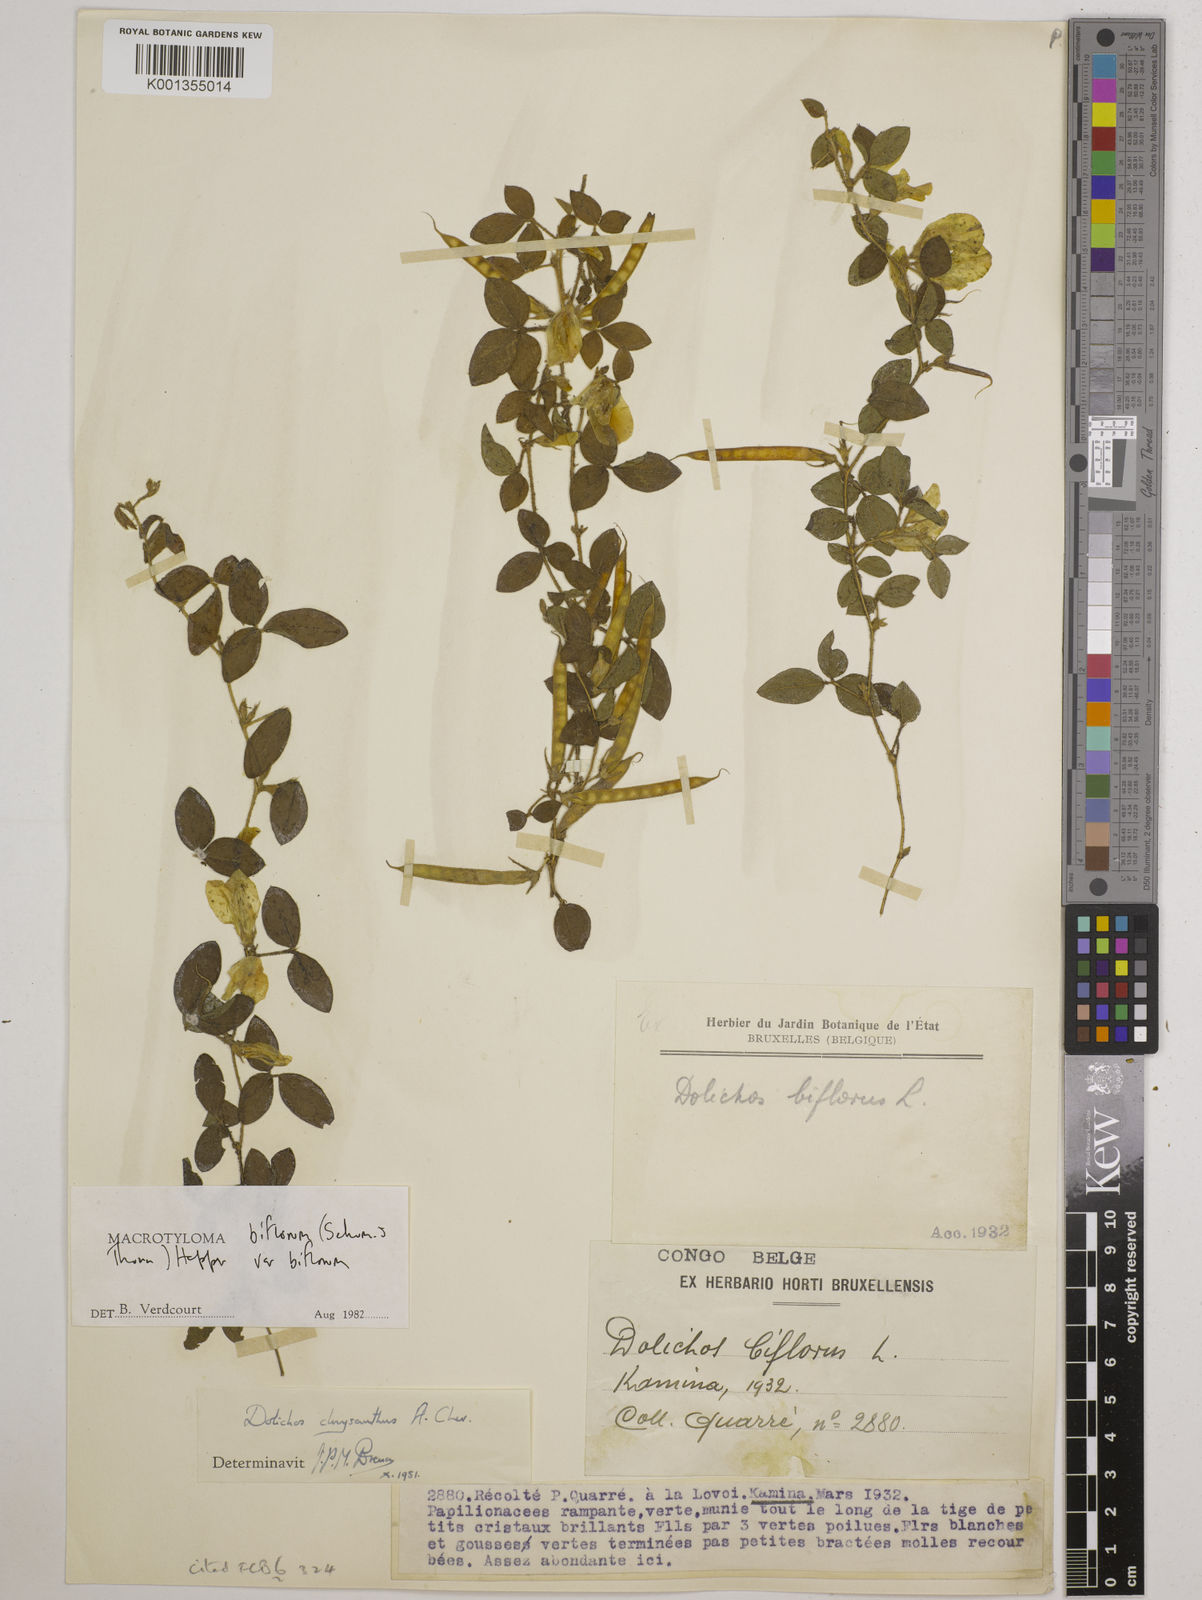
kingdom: Plantae
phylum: Tracheophyta
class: Magnoliopsida
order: Fabales
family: Fabaceae
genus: Macrotyloma
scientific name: Macrotyloma biflorum
